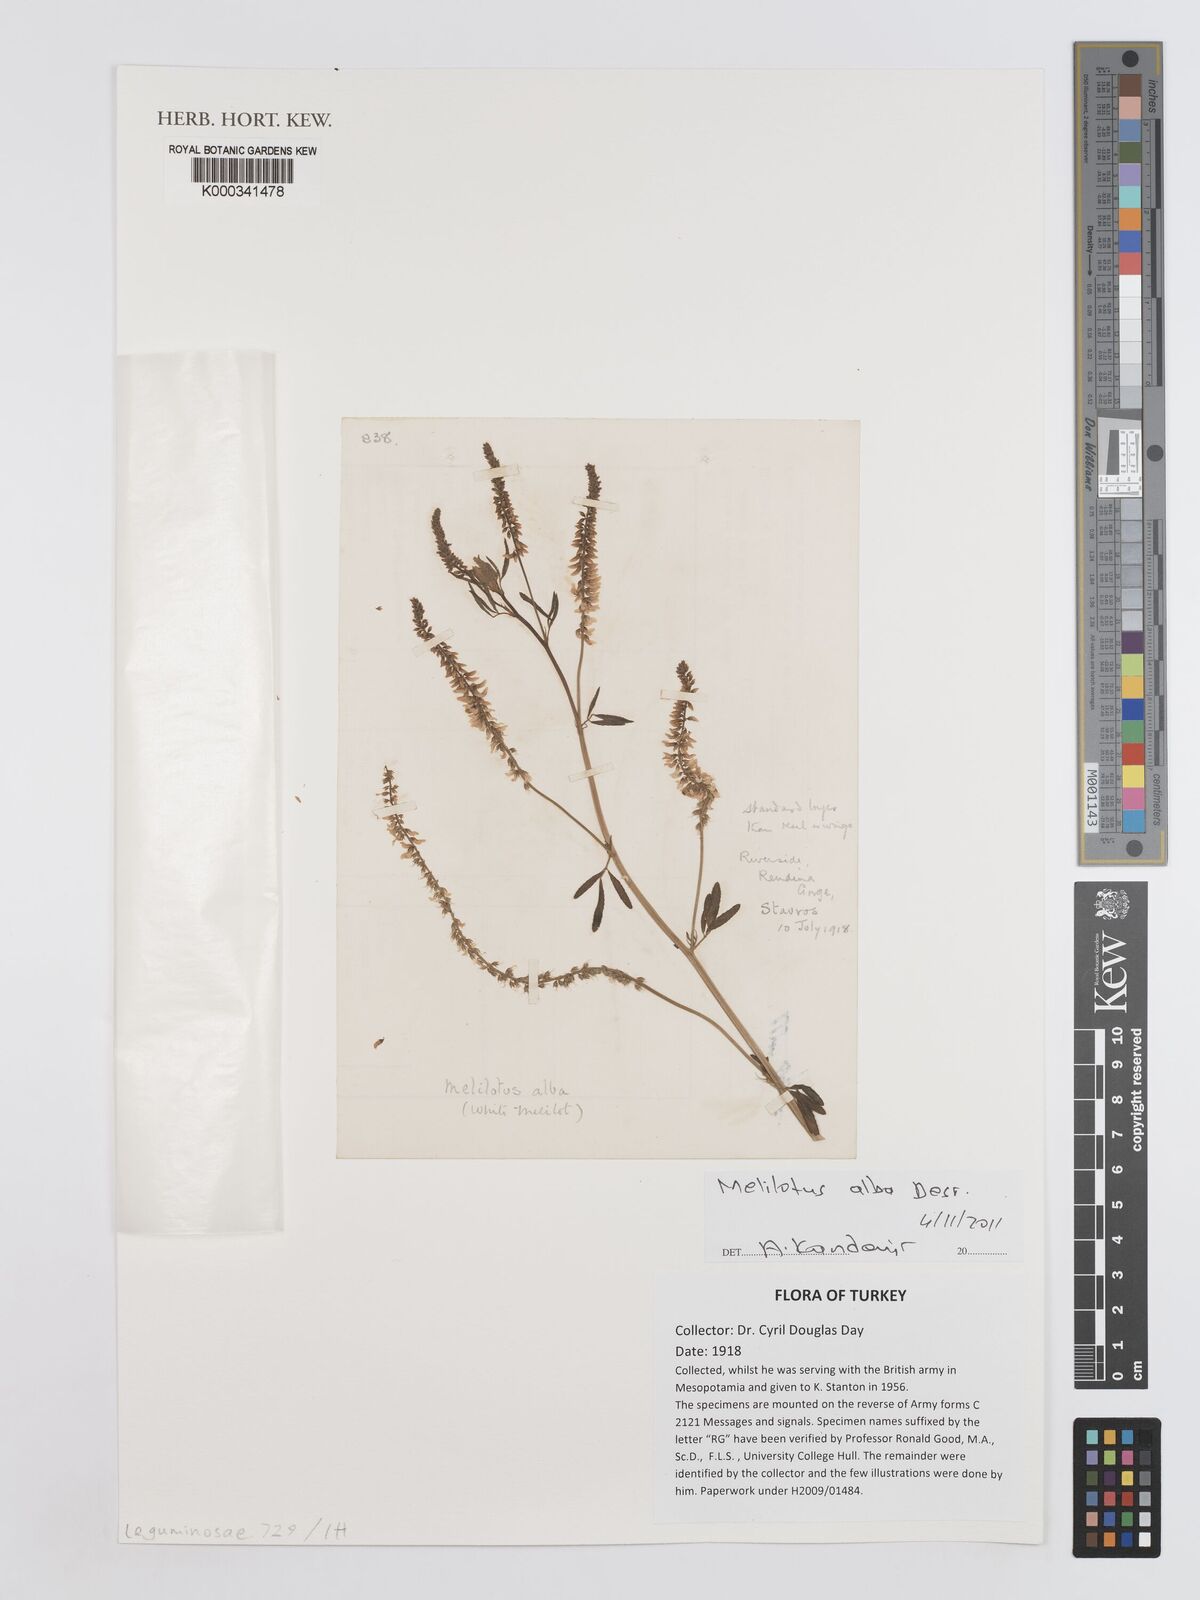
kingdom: Plantae
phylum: Tracheophyta
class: Magnoliopsida
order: Fabales
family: Fabaceae
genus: Melilotus
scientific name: Melilotus albus
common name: White melilot
